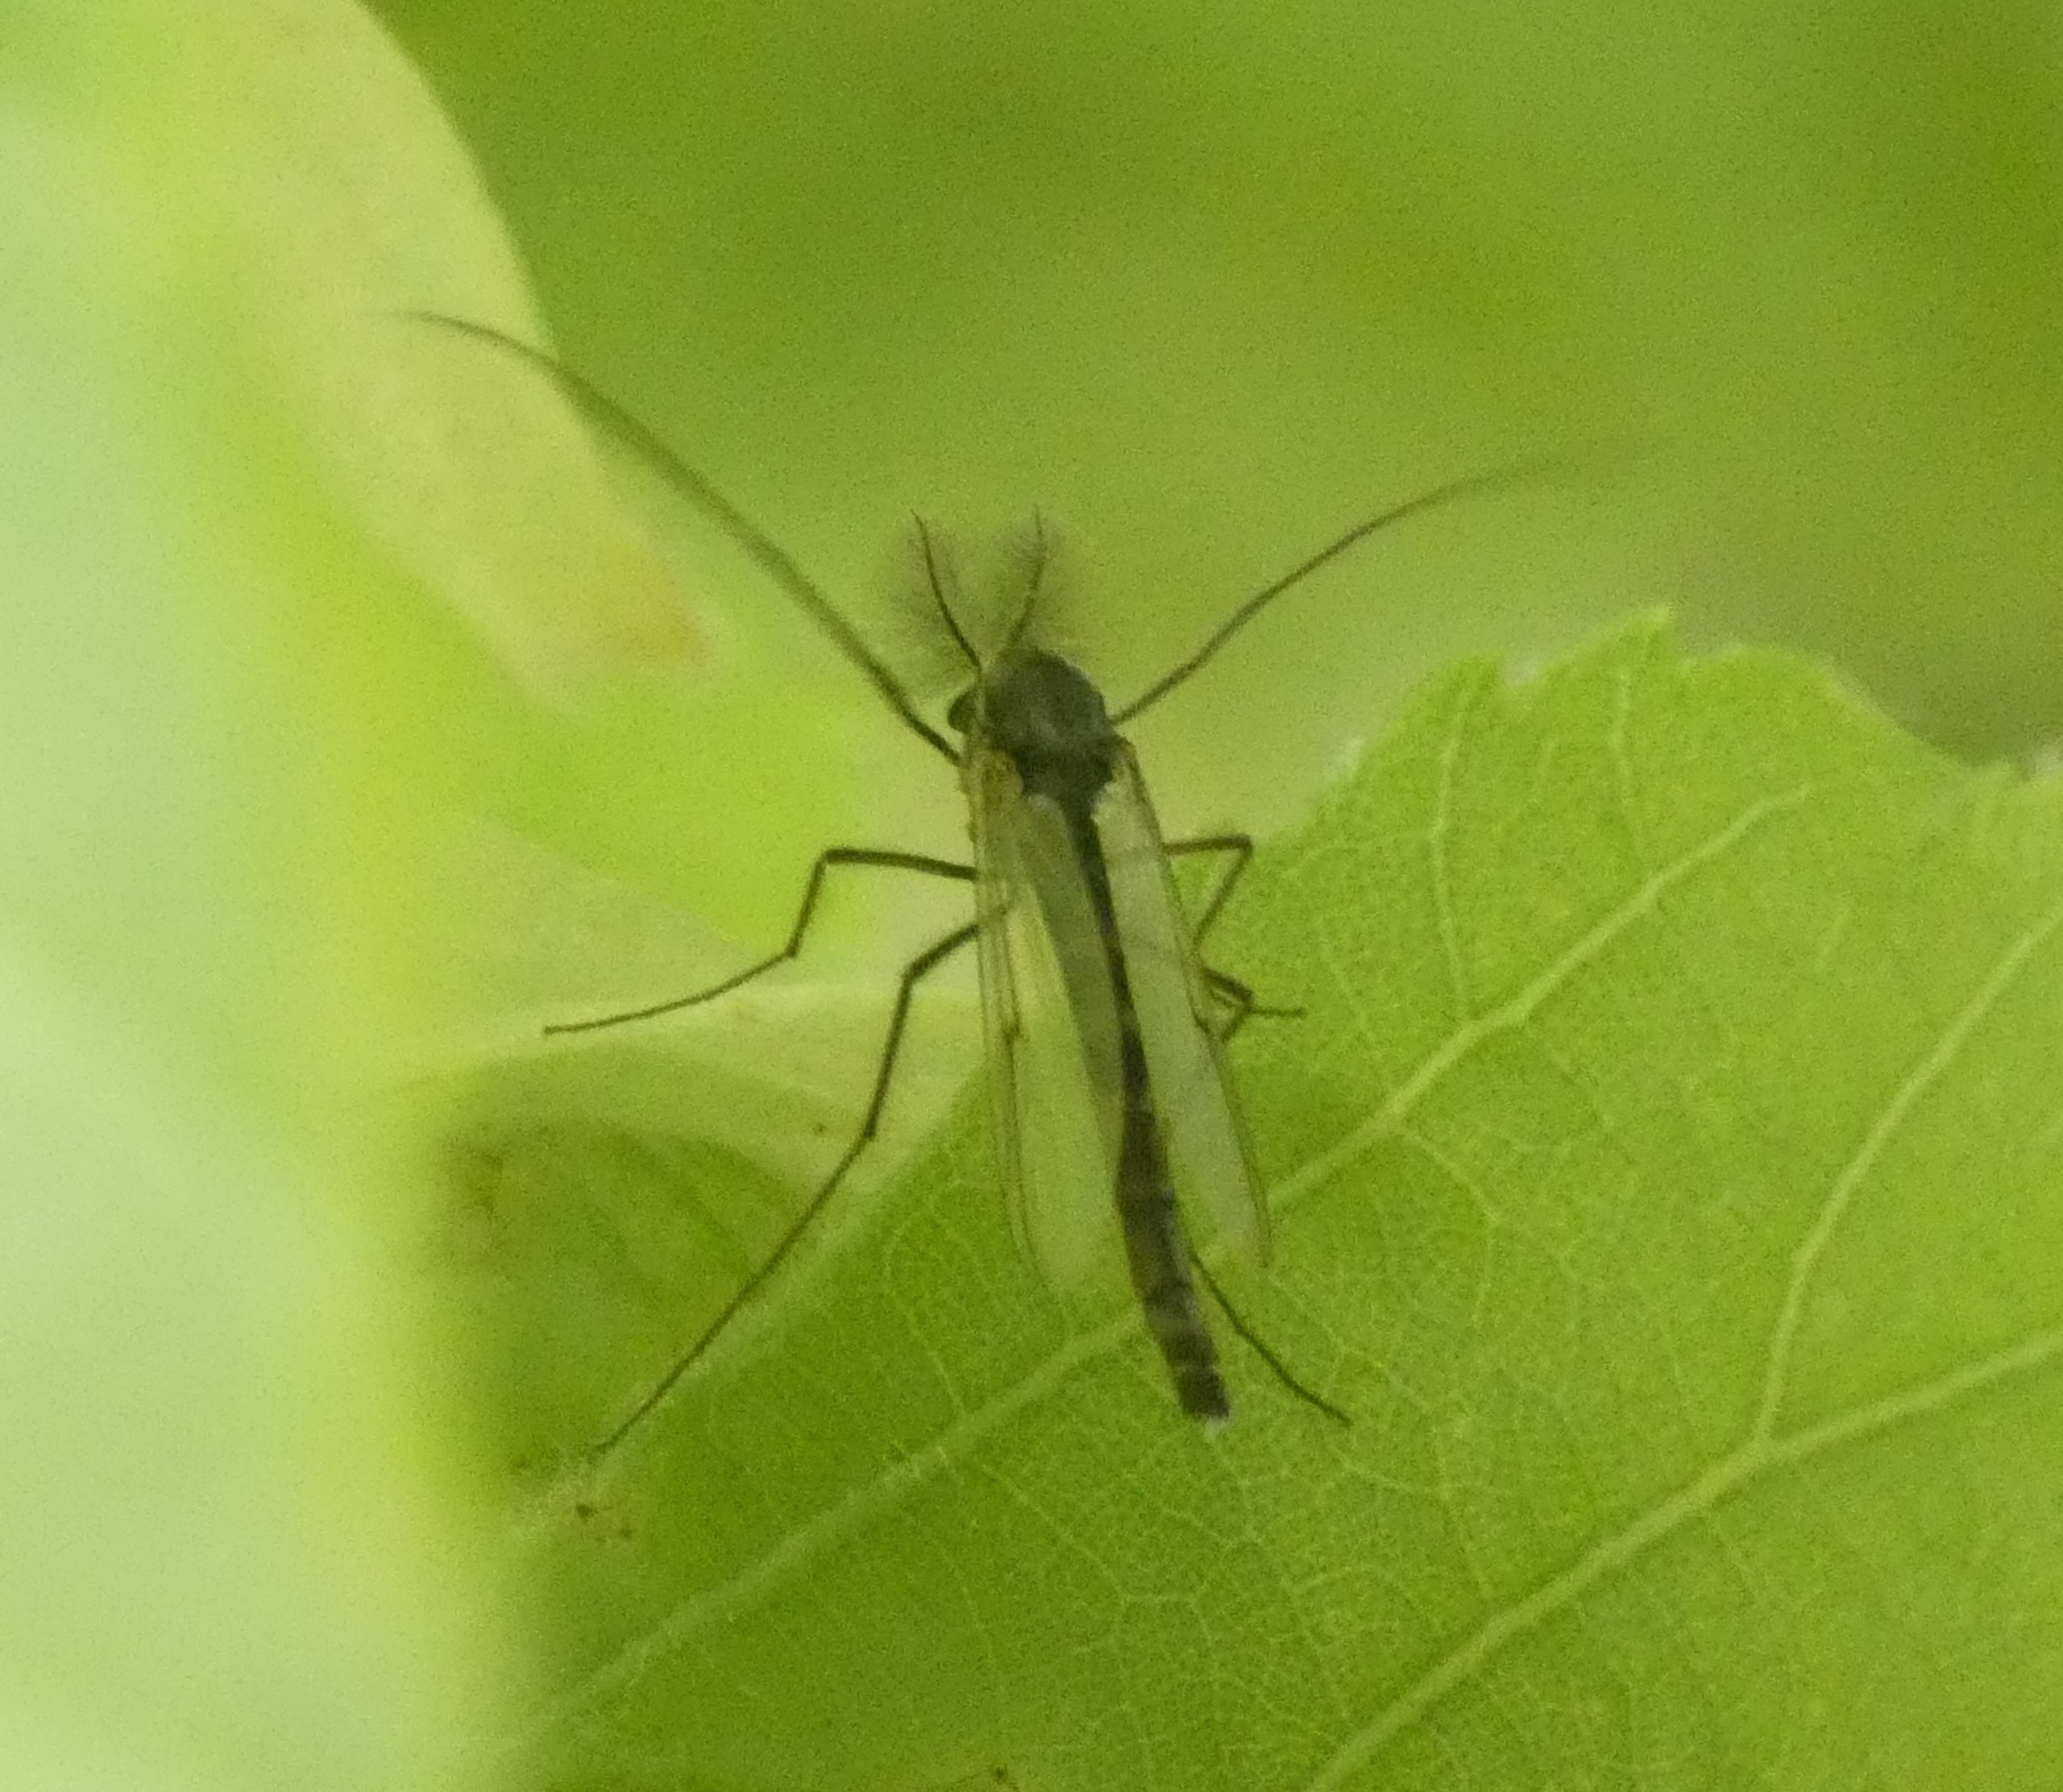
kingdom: Animalia
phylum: Arthropoda
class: Insecta
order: Diptera
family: Chironomidae
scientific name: Chironomidae
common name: Dansemyg
